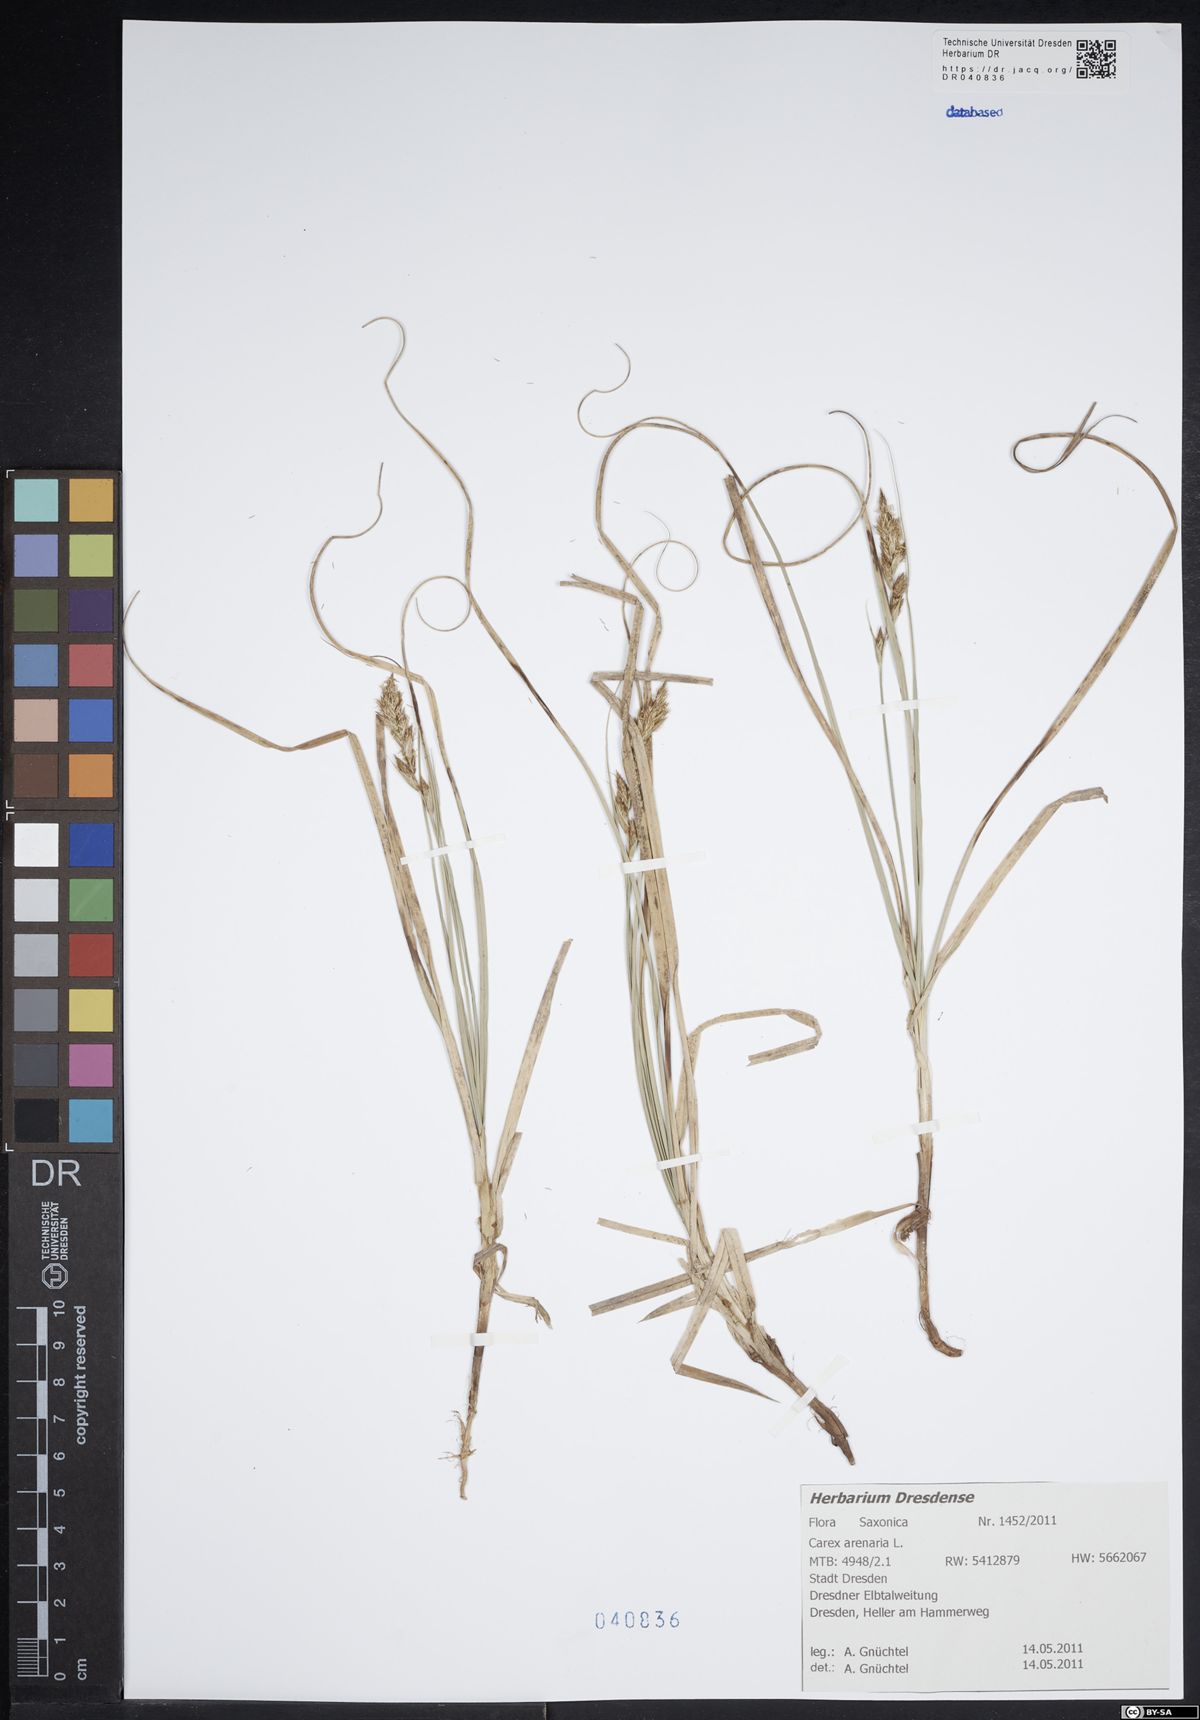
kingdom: Plantae
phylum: Tracheophyta
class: Liliopsida
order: Poales
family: Cyperaceae
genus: Carex
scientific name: Carex arenaria
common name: Sand sedge
